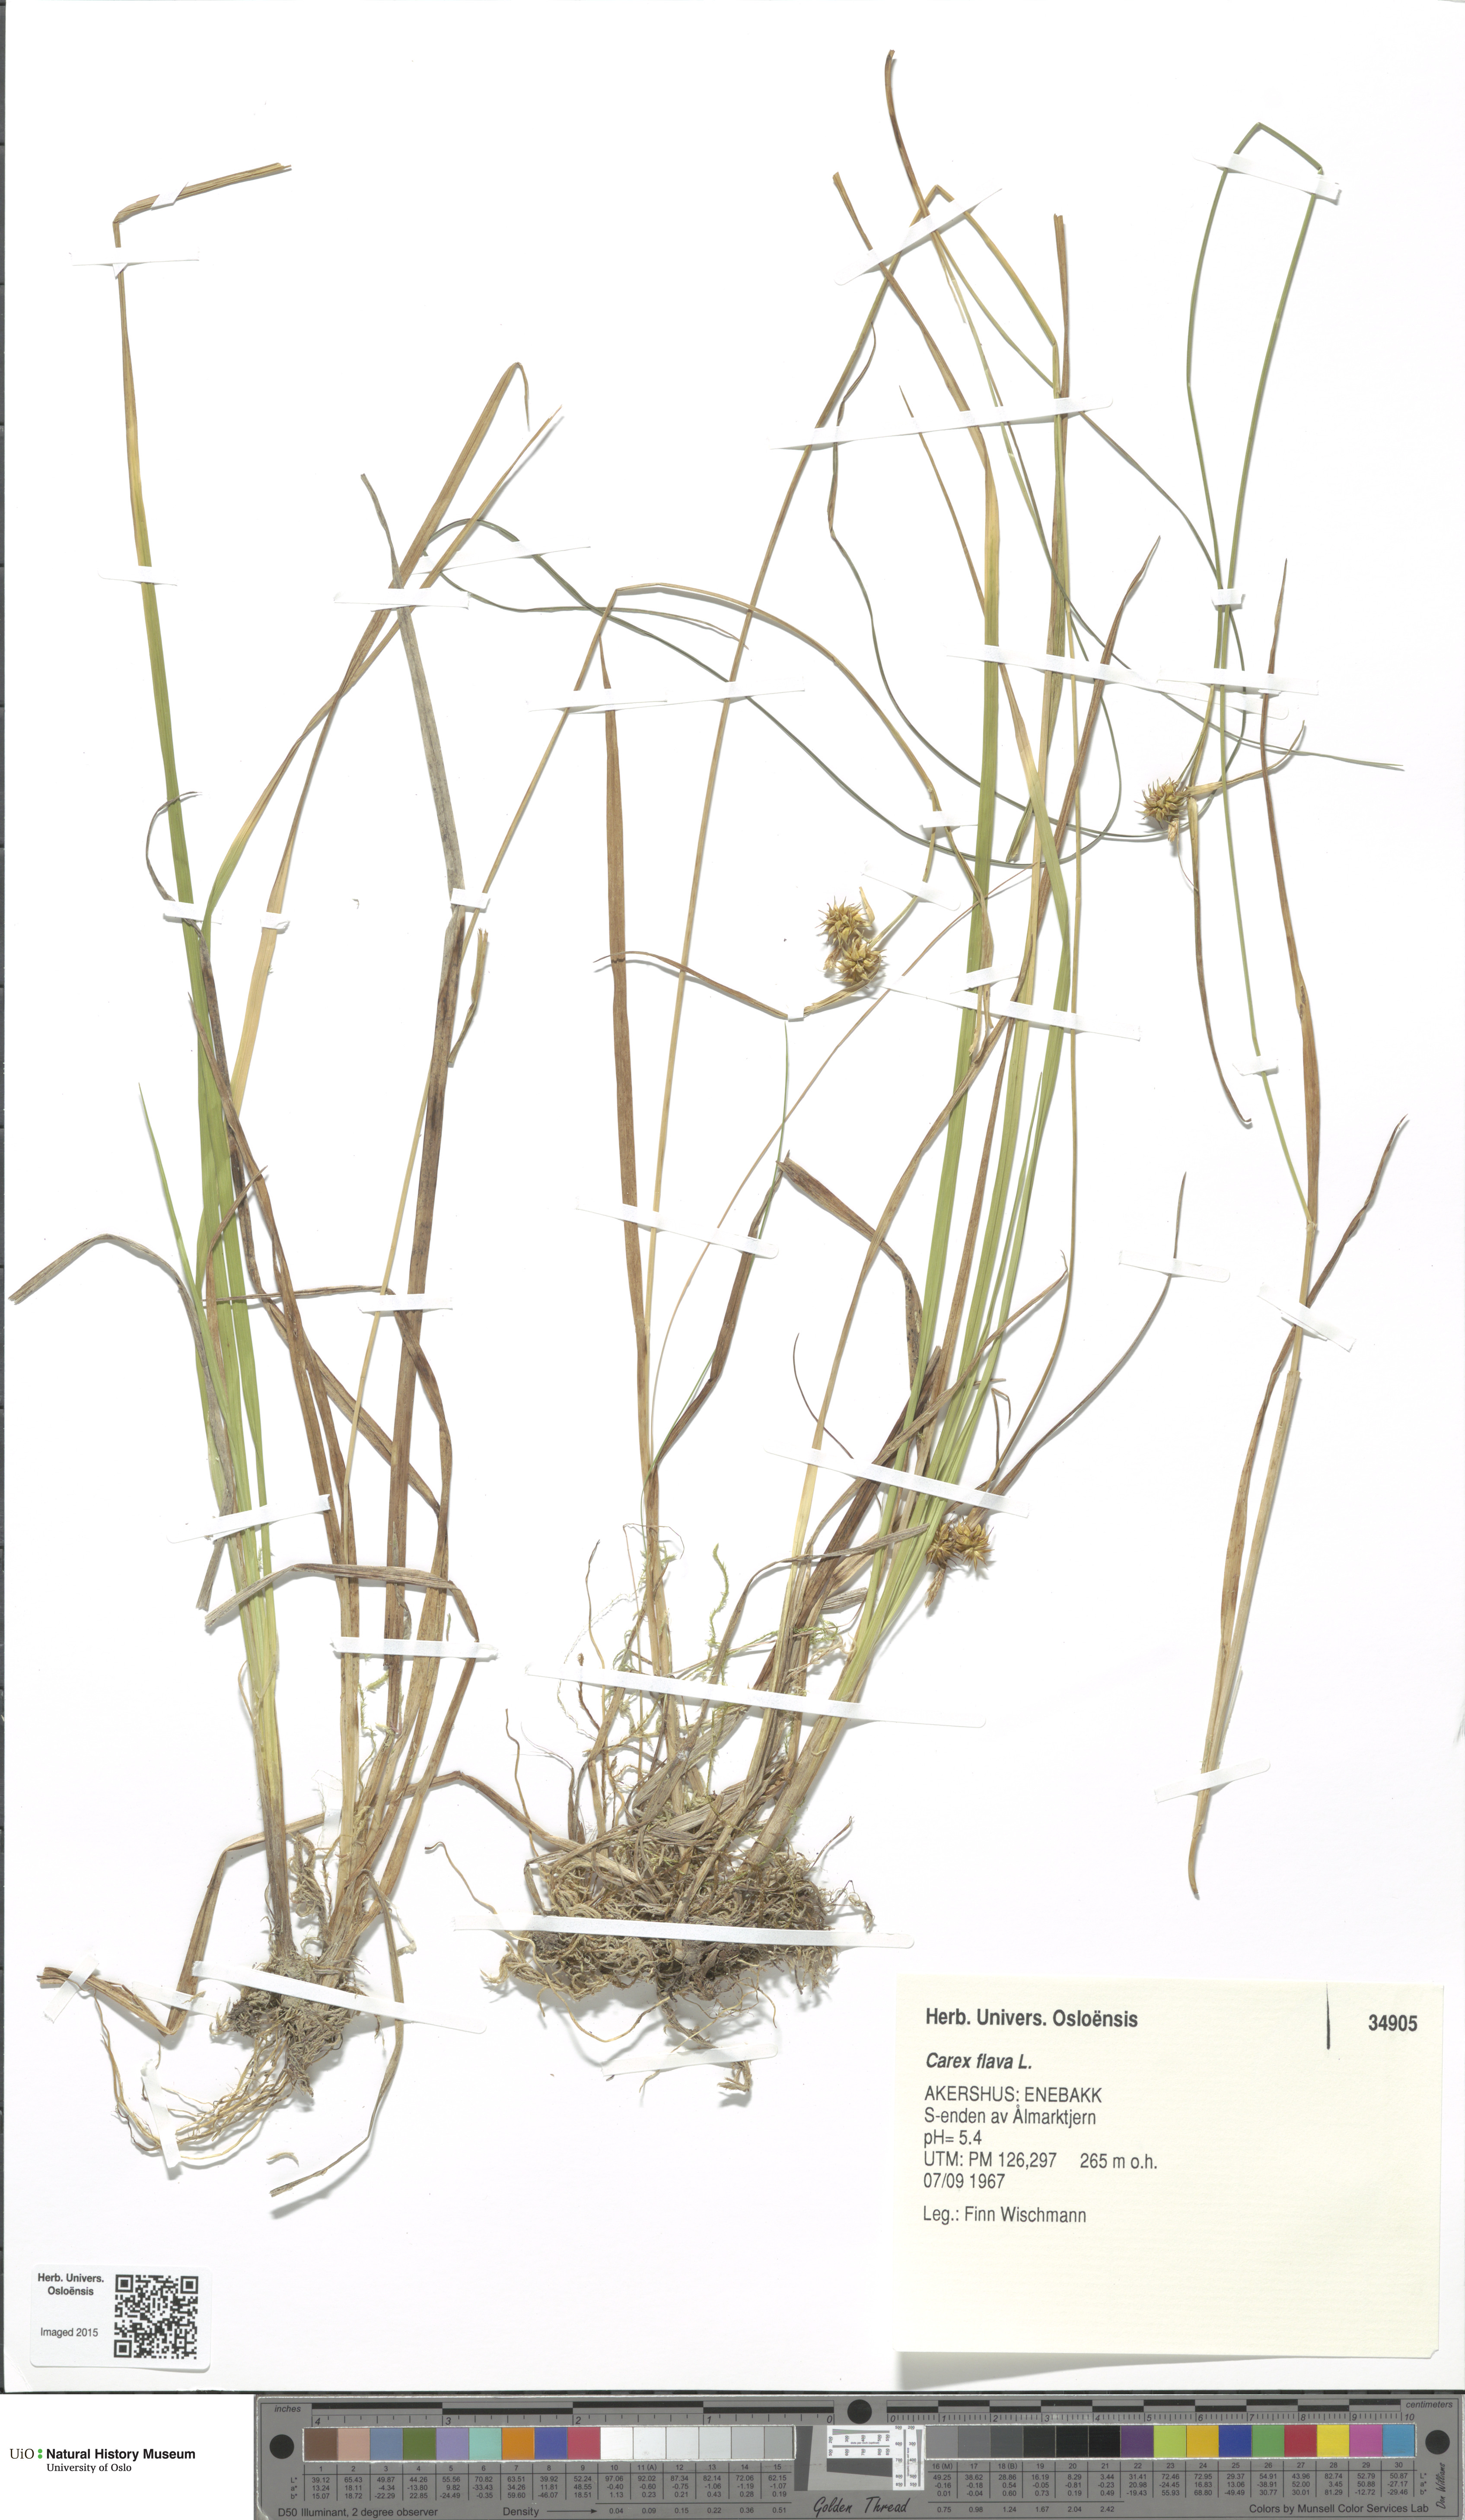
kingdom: Plantae
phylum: Tracheophyta
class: Liliopsida
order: Poales
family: Cyperaceae
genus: Carex
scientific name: Carex flava
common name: Large yellow-sedge
